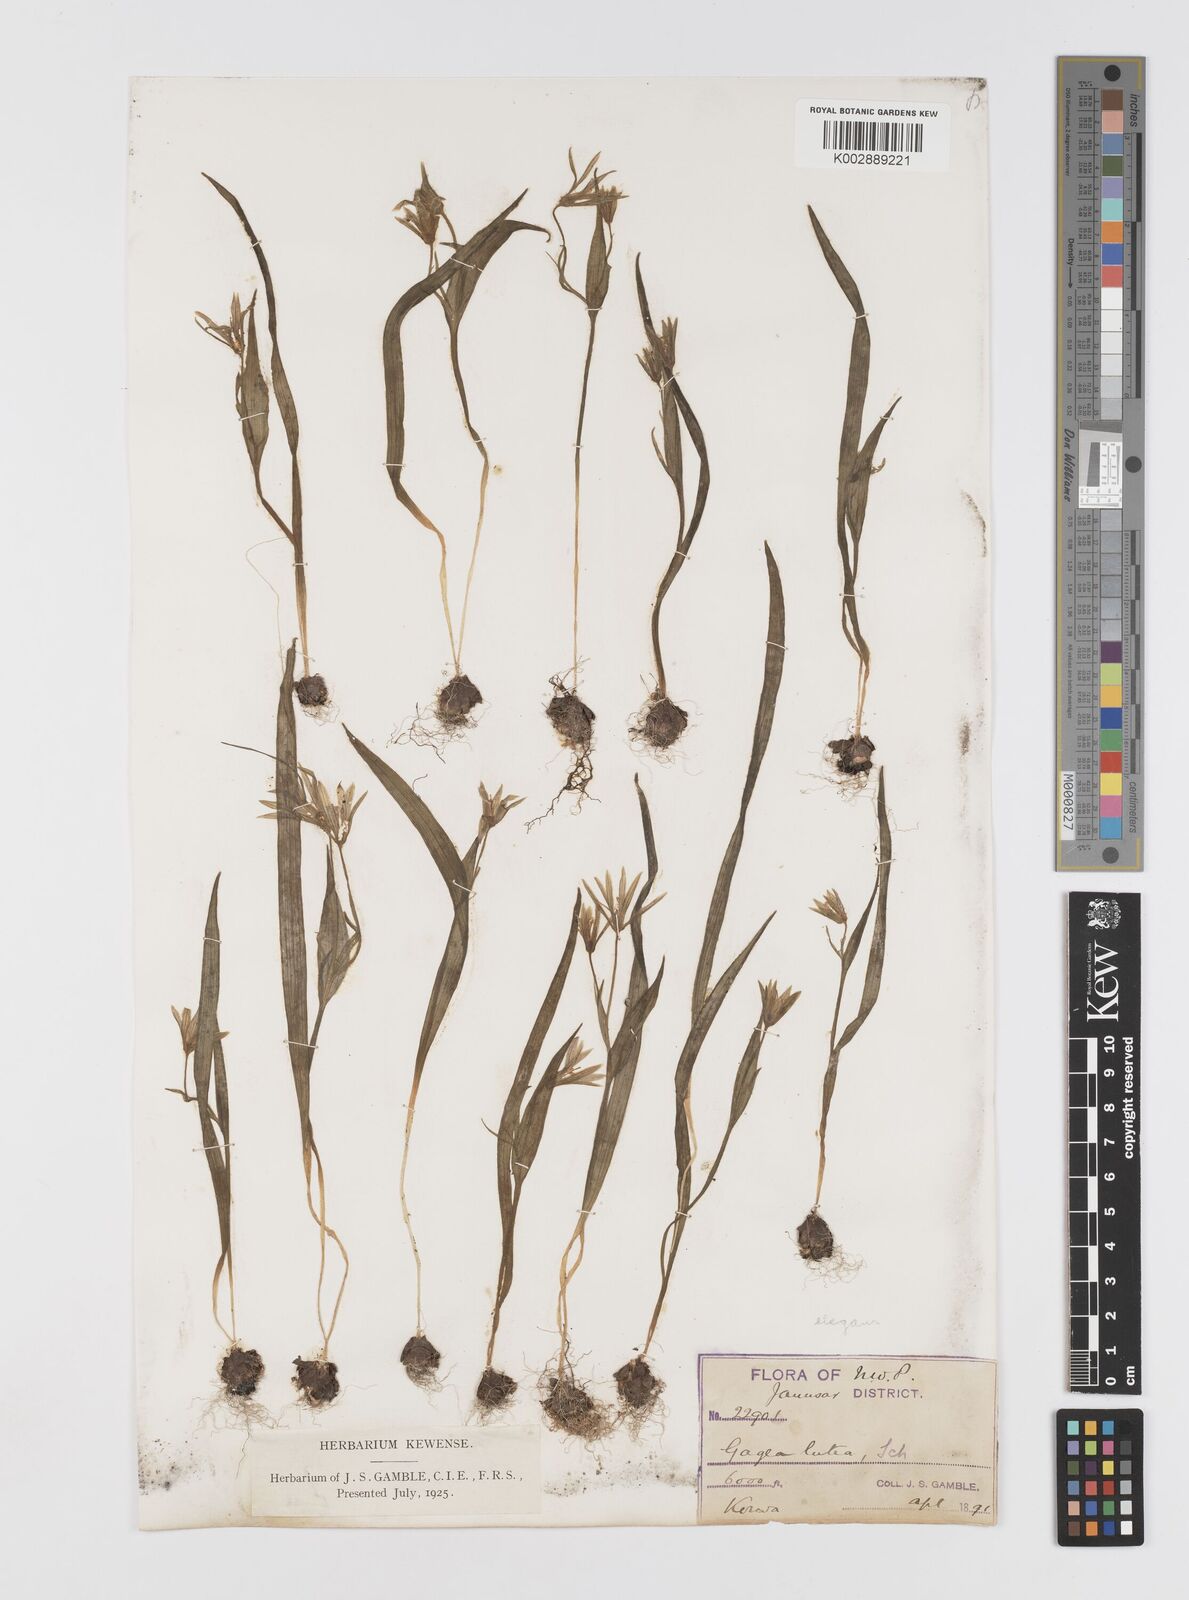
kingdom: Plantae
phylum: Tracheophyta
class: Liliopsida
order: Liliales
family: Liliaceae
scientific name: Liliaceae
